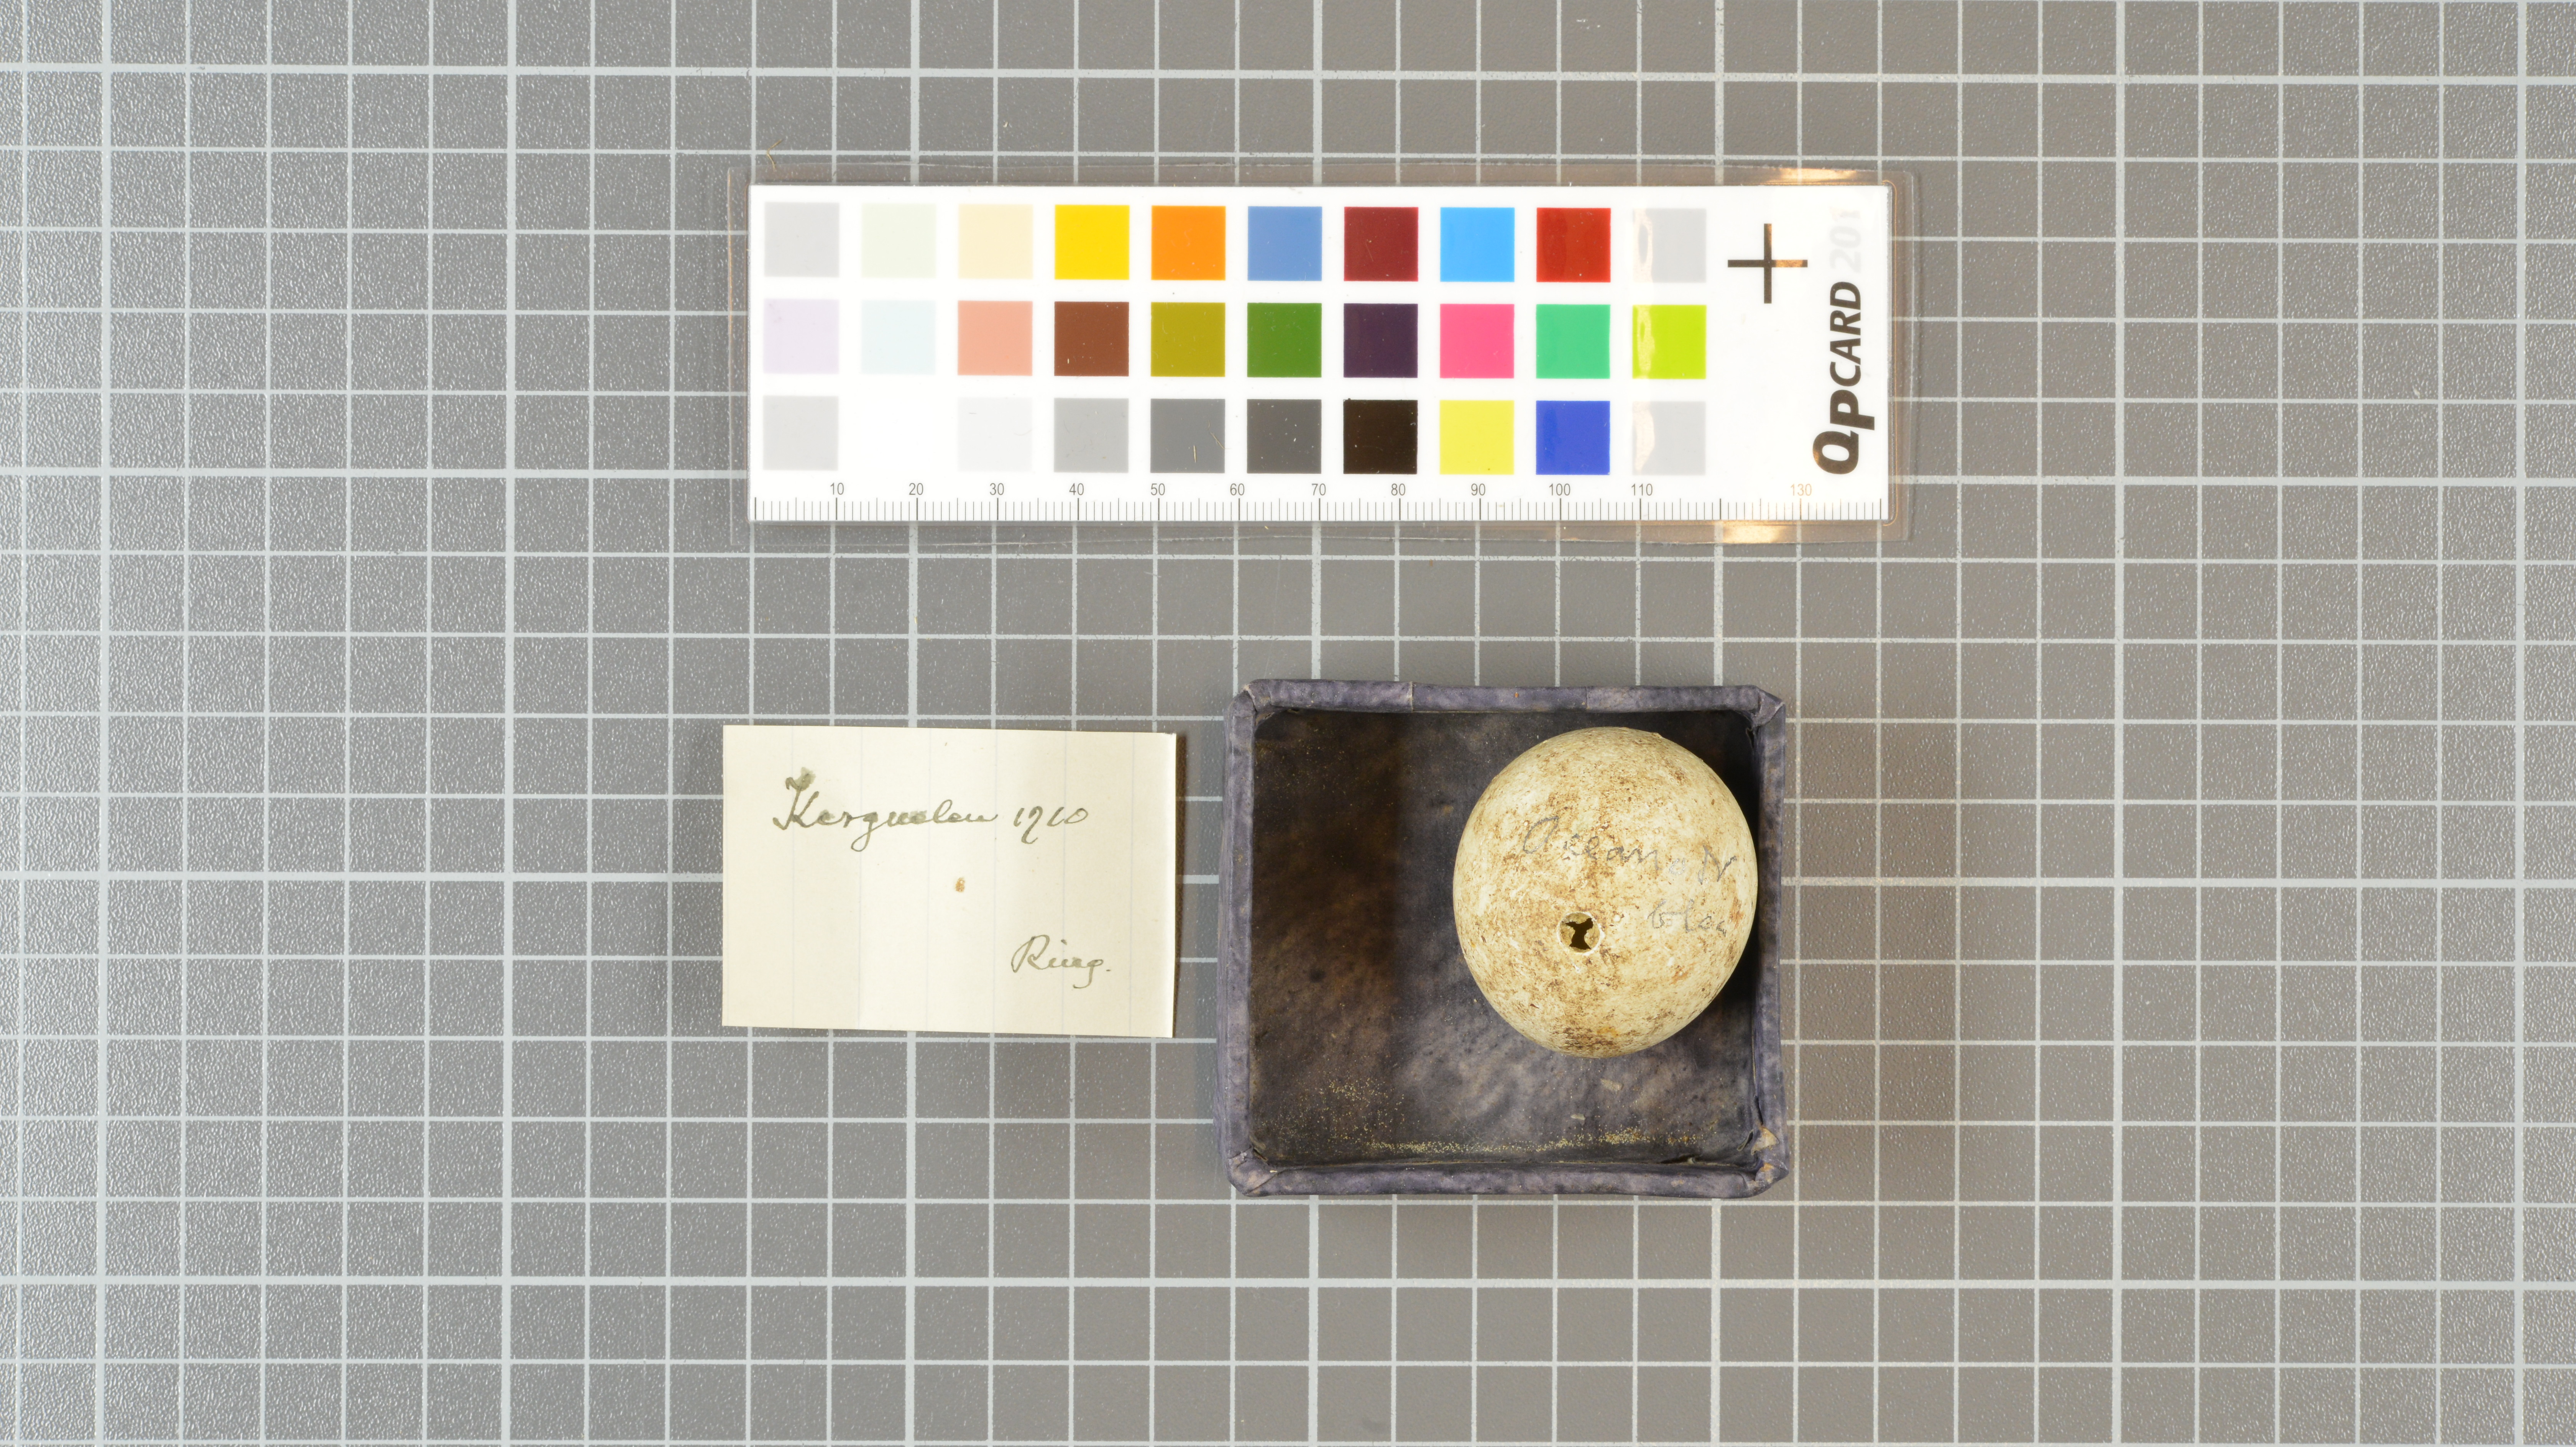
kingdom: Animalia
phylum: Chordata
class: Aves
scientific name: Aves
